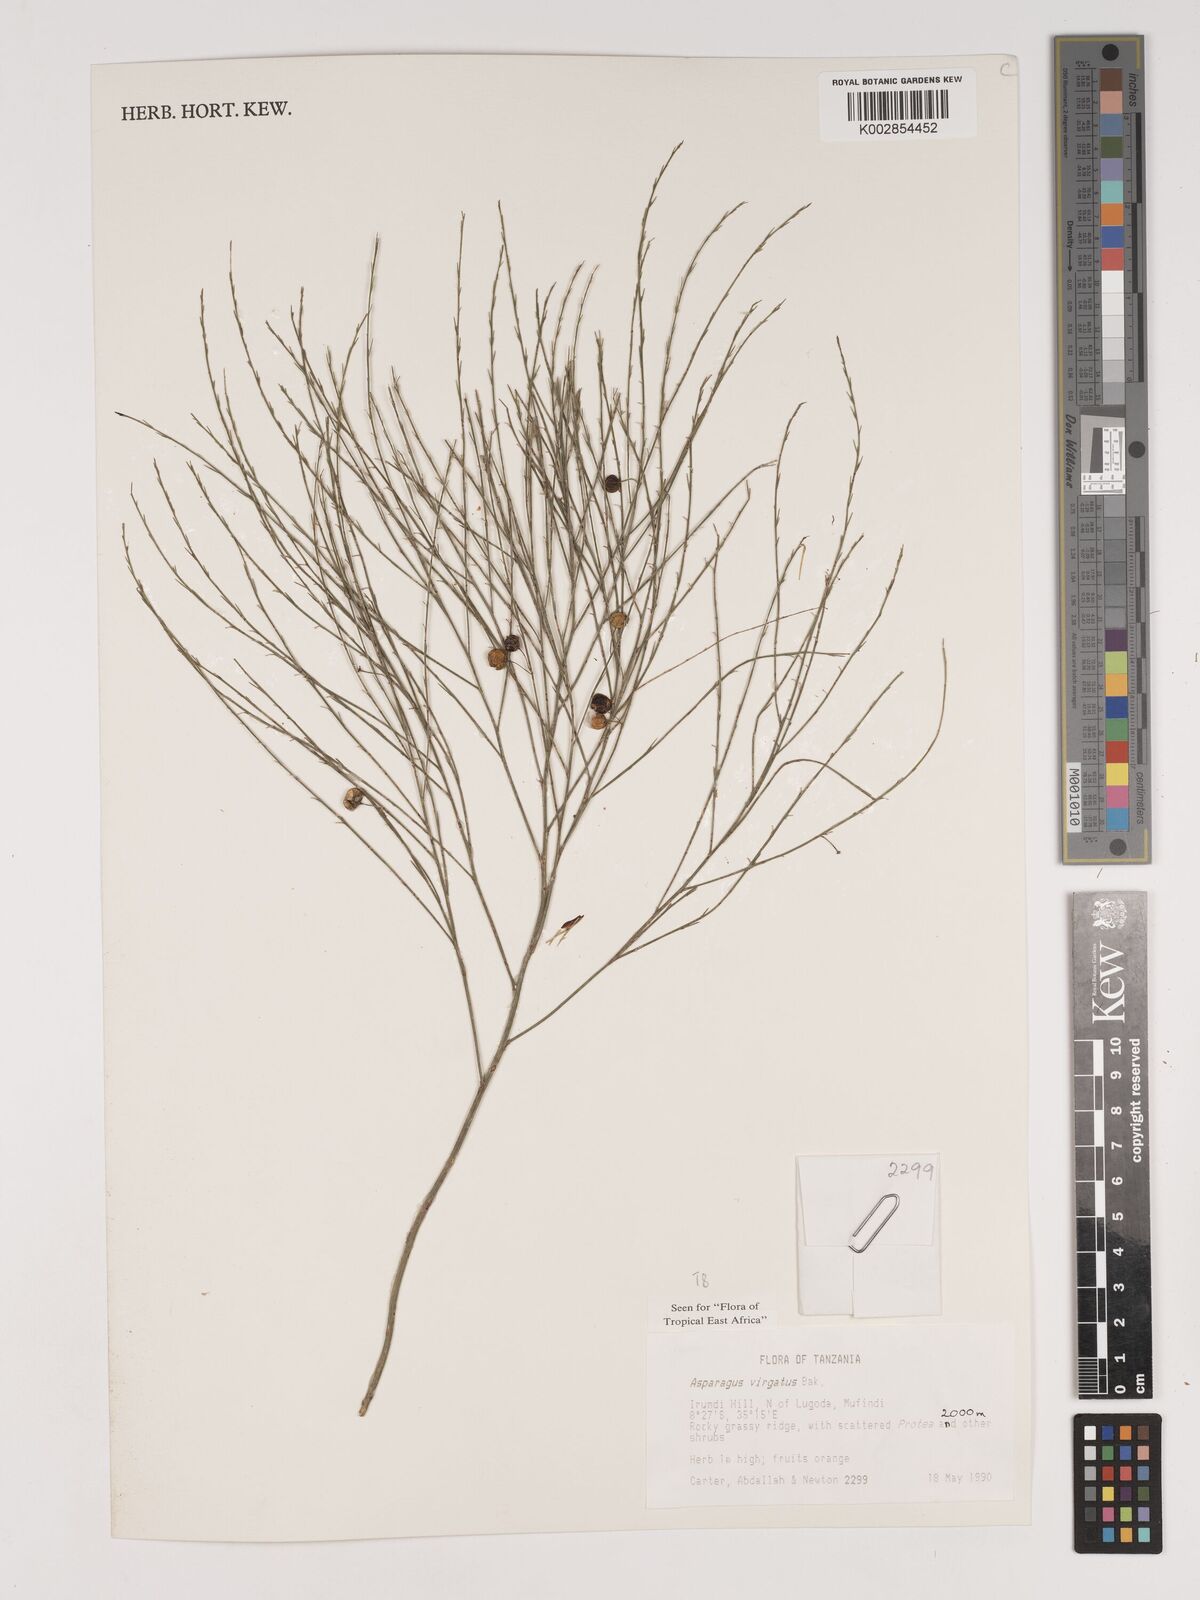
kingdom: Plantae
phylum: Tracheophyta
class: Liliopsida
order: Asparagales
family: Asparagaceae
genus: Asparagus
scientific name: Asparagus virgatus
